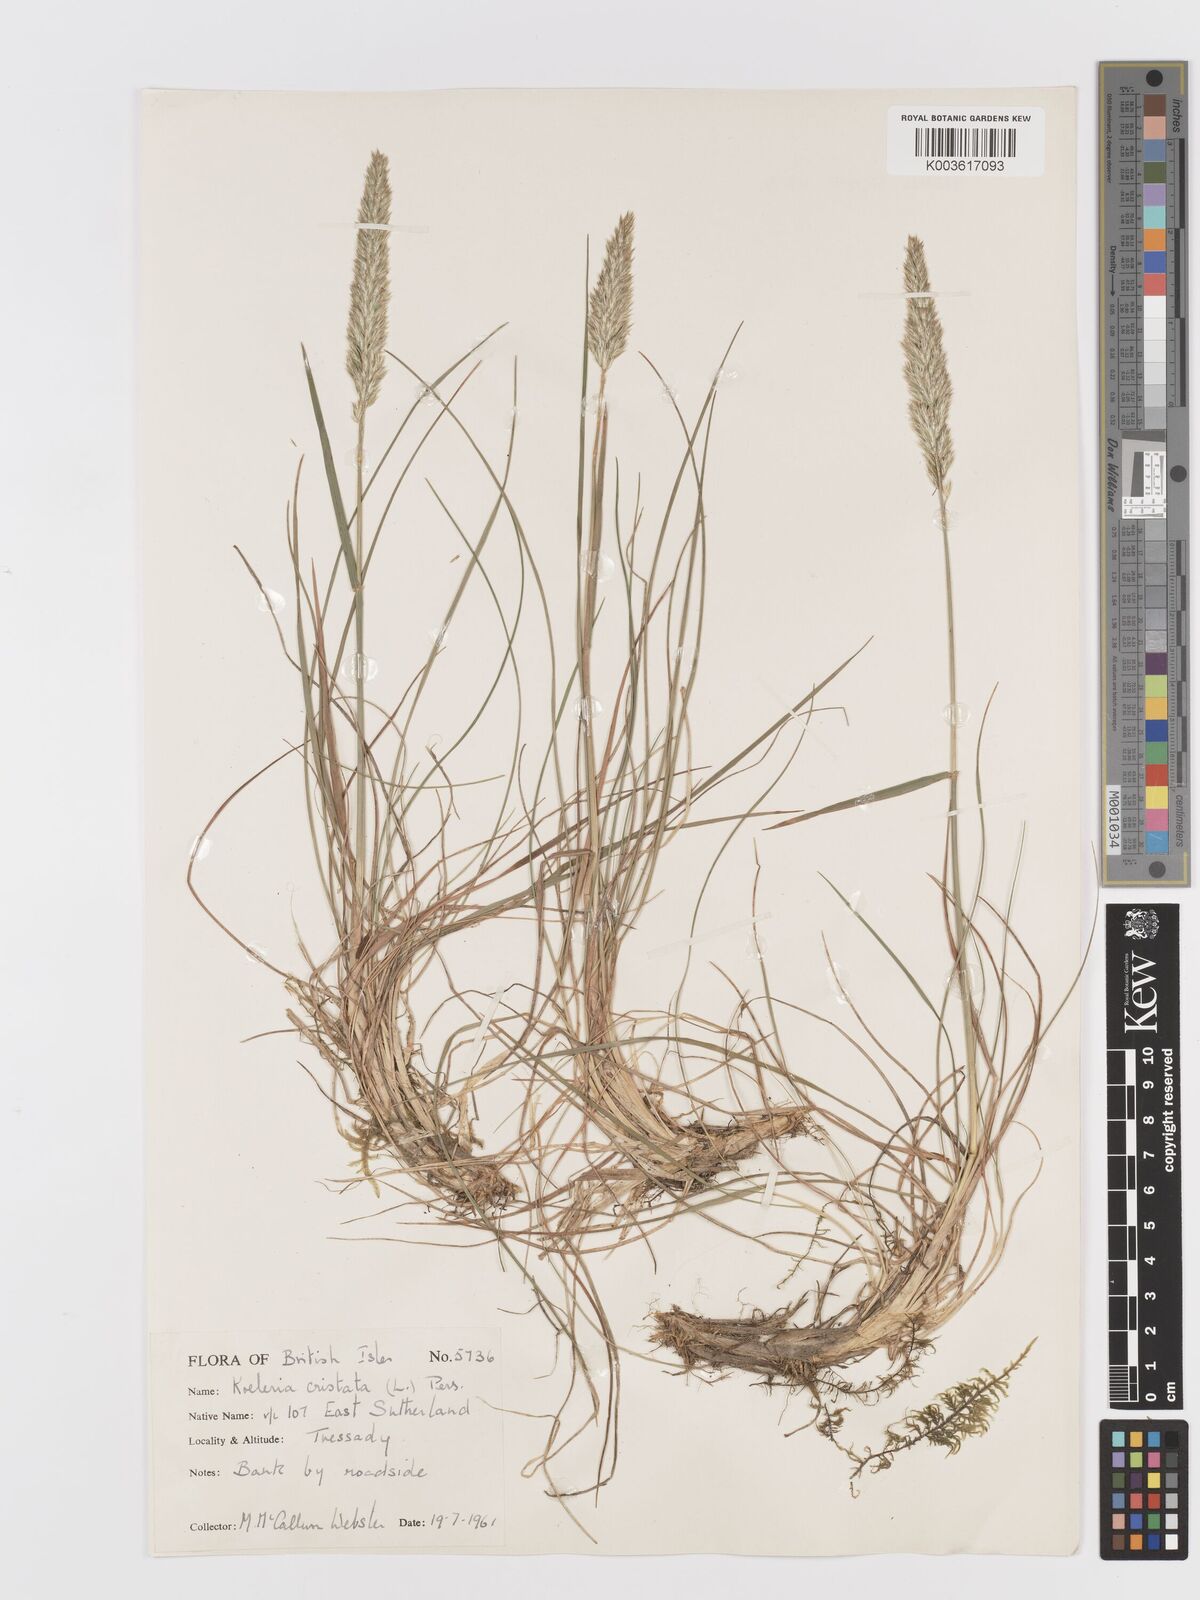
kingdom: Plantae
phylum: Tracheophyta
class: Liliopsida
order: Poales
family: Poaceae
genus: Koeleria
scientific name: Koeleria macrantha
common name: Crested hair-grass
